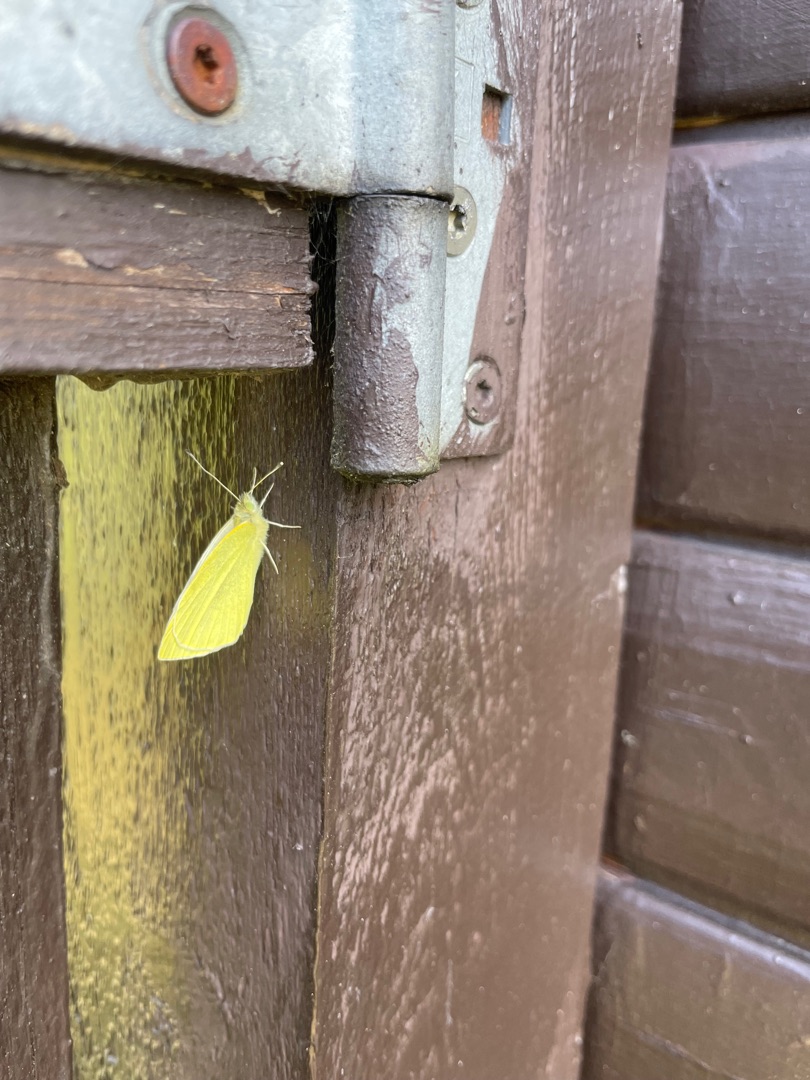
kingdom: Animalia
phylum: Arthropoda
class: Insecta
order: Lepidoptera
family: Pieridae
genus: Pieris
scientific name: Pieris rapae
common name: Lille kålsommerfugl
